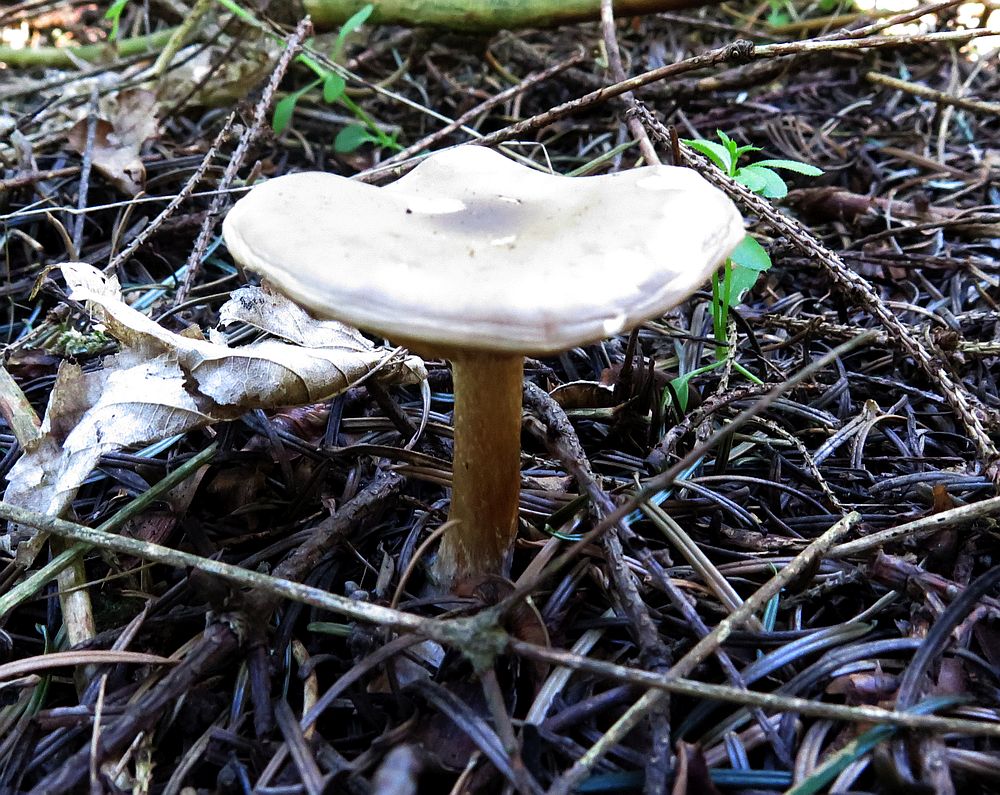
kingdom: Fungi
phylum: Basidiomycota
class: Agaricomycetes
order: Agaricales
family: Tricholomataceae
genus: Melanoleuca
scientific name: Melanoleuca cognata
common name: gyldengrå munkehat
